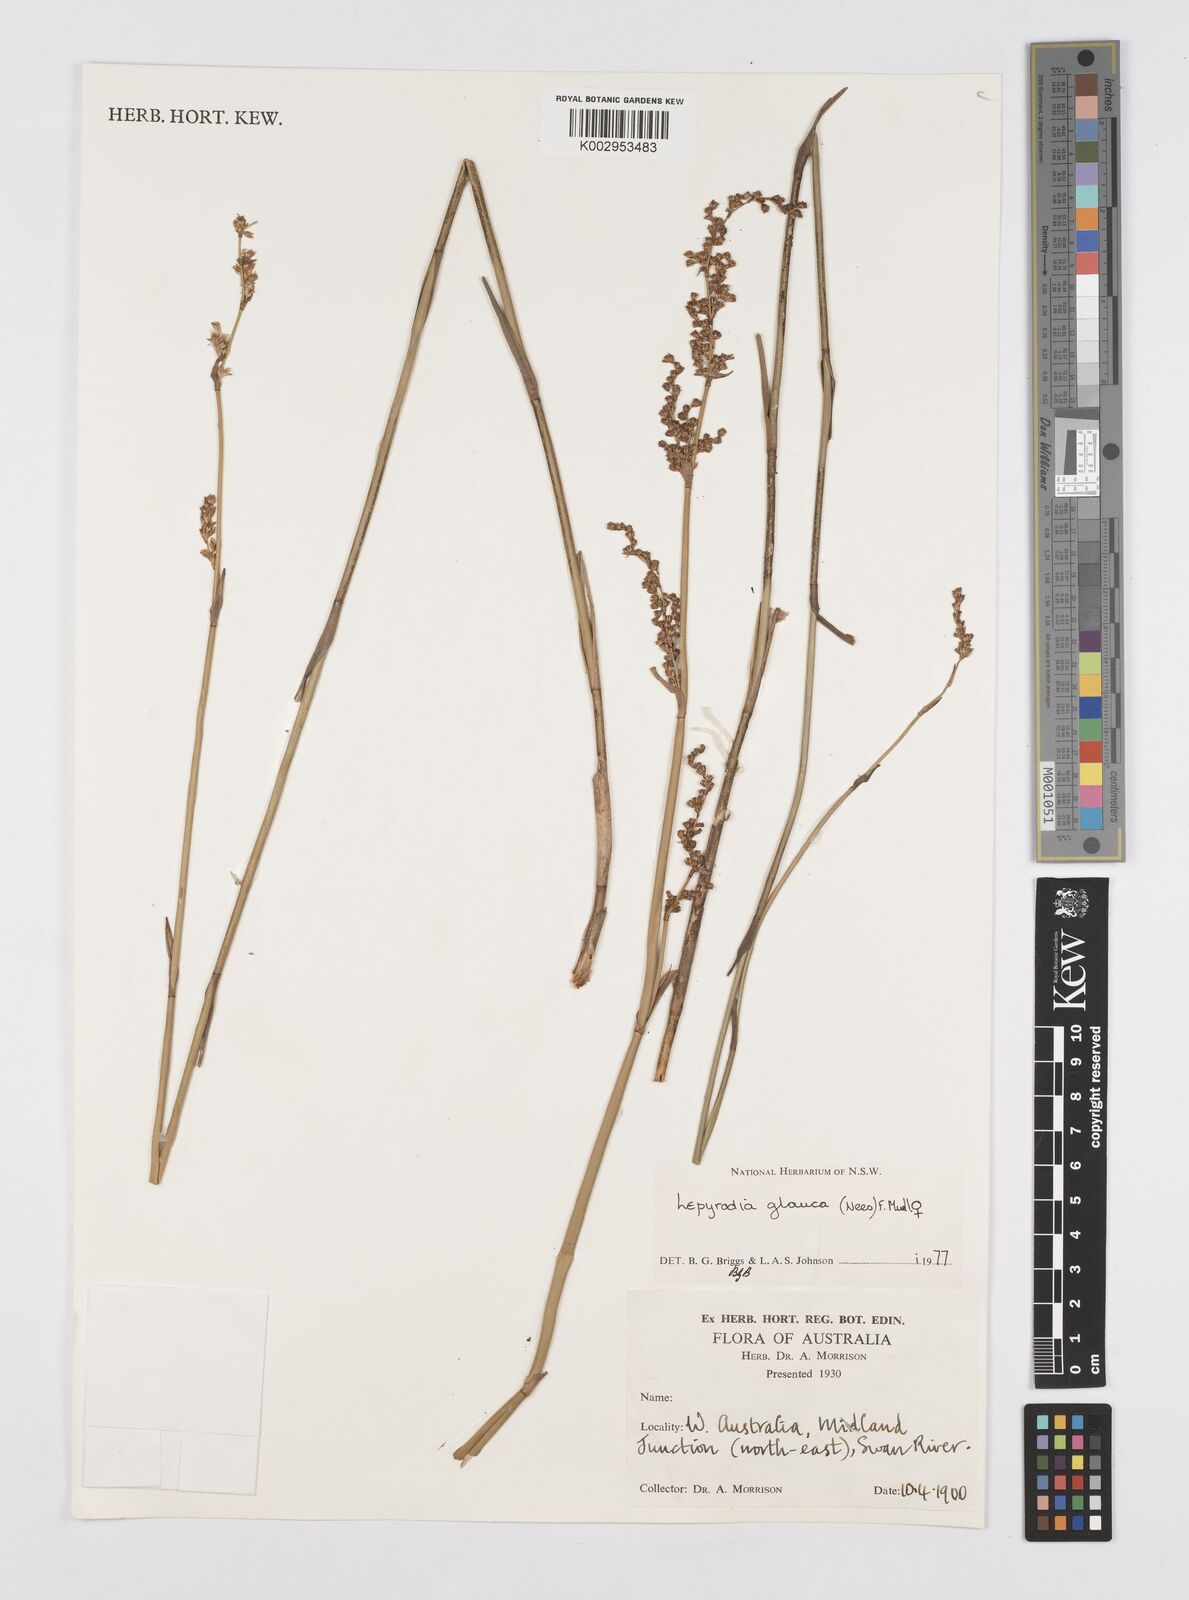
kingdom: Plantae
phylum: Tracheophyta
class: Liliopsida
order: Poales
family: Restionaceae
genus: Lepyrodia
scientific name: Lepyrodia glauca
